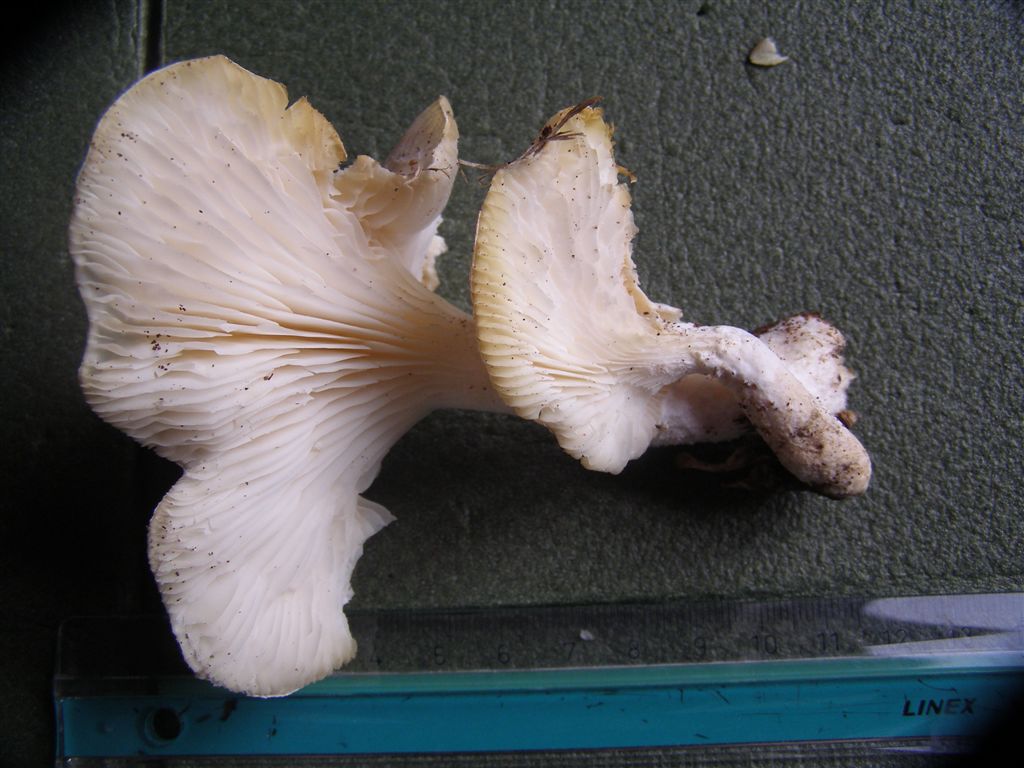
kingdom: Fungi
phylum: Basidiomycota
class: Agaricomycetes
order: Agaricales
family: Pleurotaceae
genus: Pleurotus
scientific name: Pleurotus dryinus
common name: korkagtig østershat
